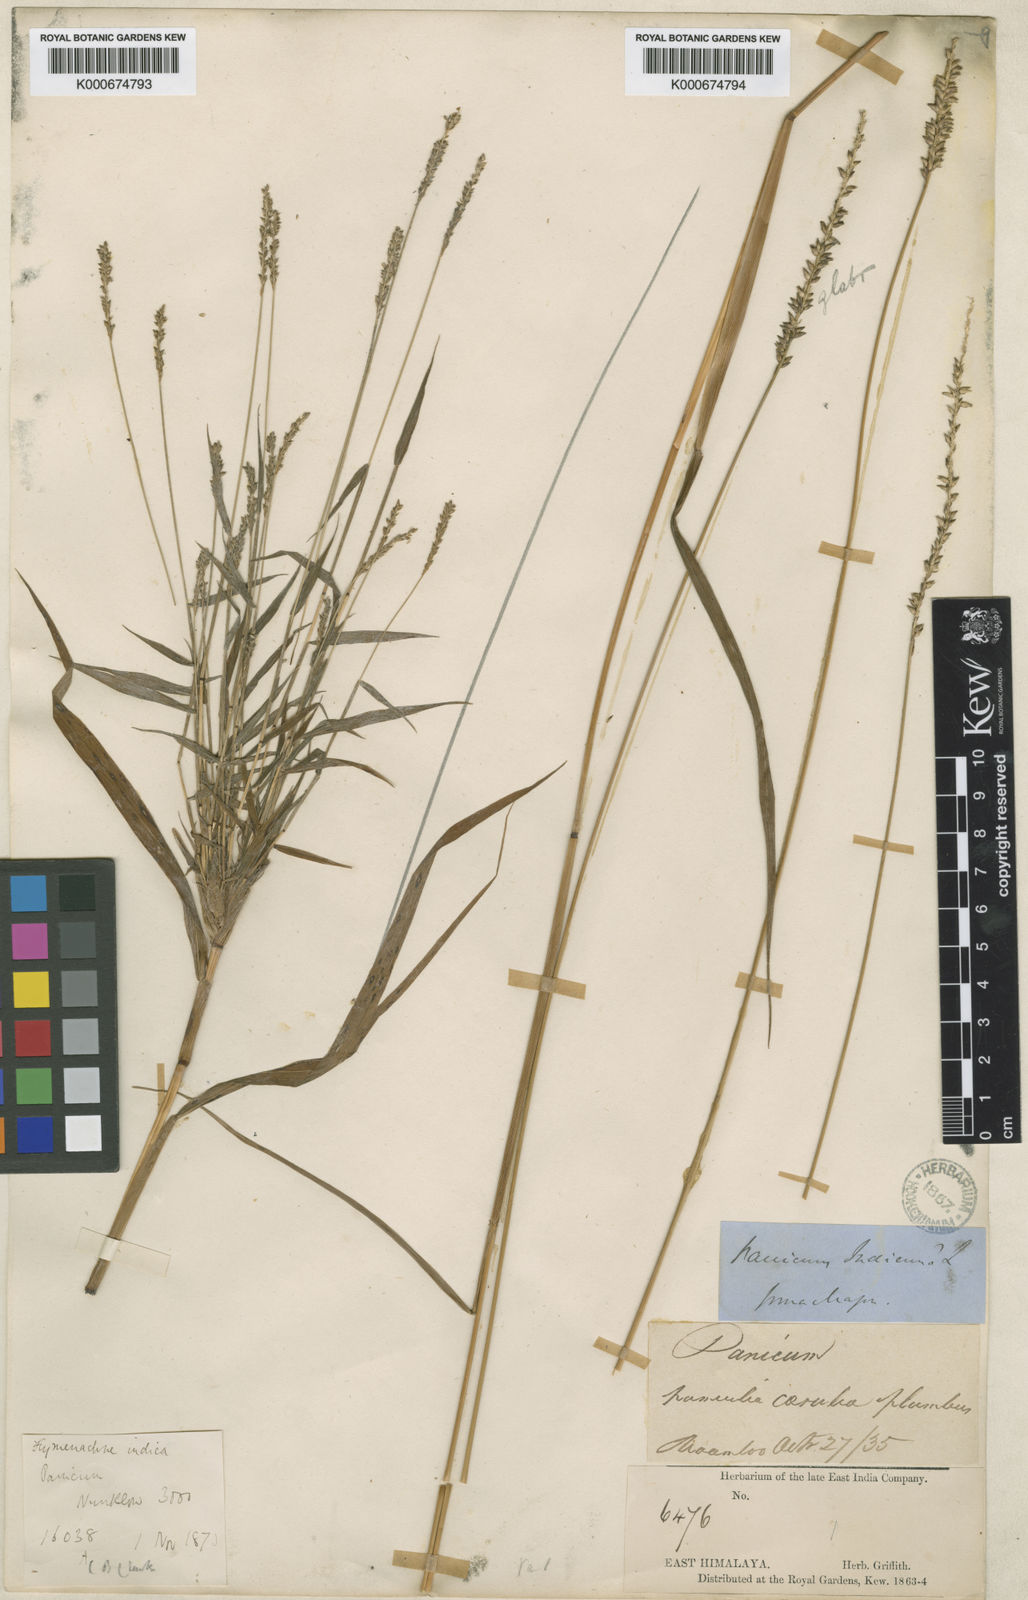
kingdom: Plantae
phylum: Tracheophyta
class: Liliopsida
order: Poales
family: Poaceae
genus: Sacciolepis
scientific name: Sacciolepis
